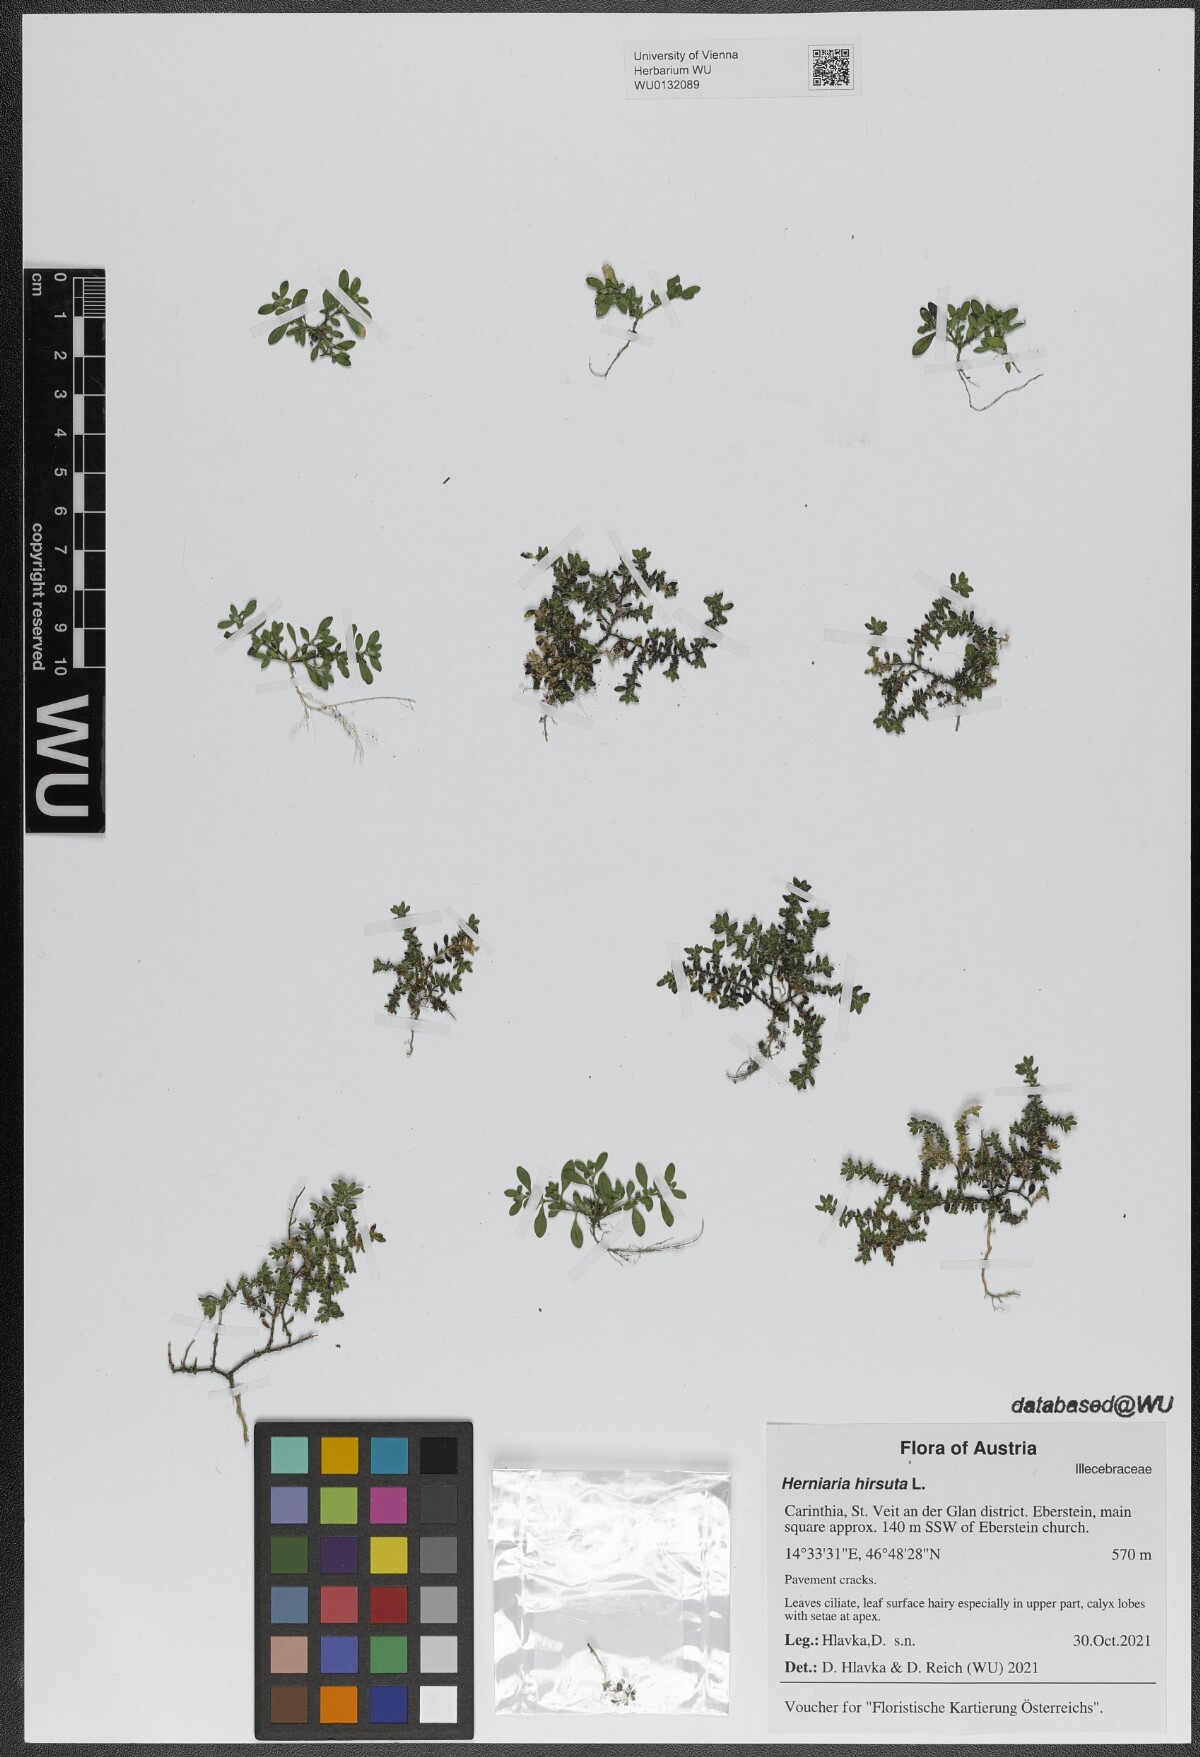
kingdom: Plantae
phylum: Tracheophyta
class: Magnoliopsida
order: Caryophyllales
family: Caryophyllaceae
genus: Herniaria
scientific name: Herniaria hirsuta
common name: Hairy rupturewort
